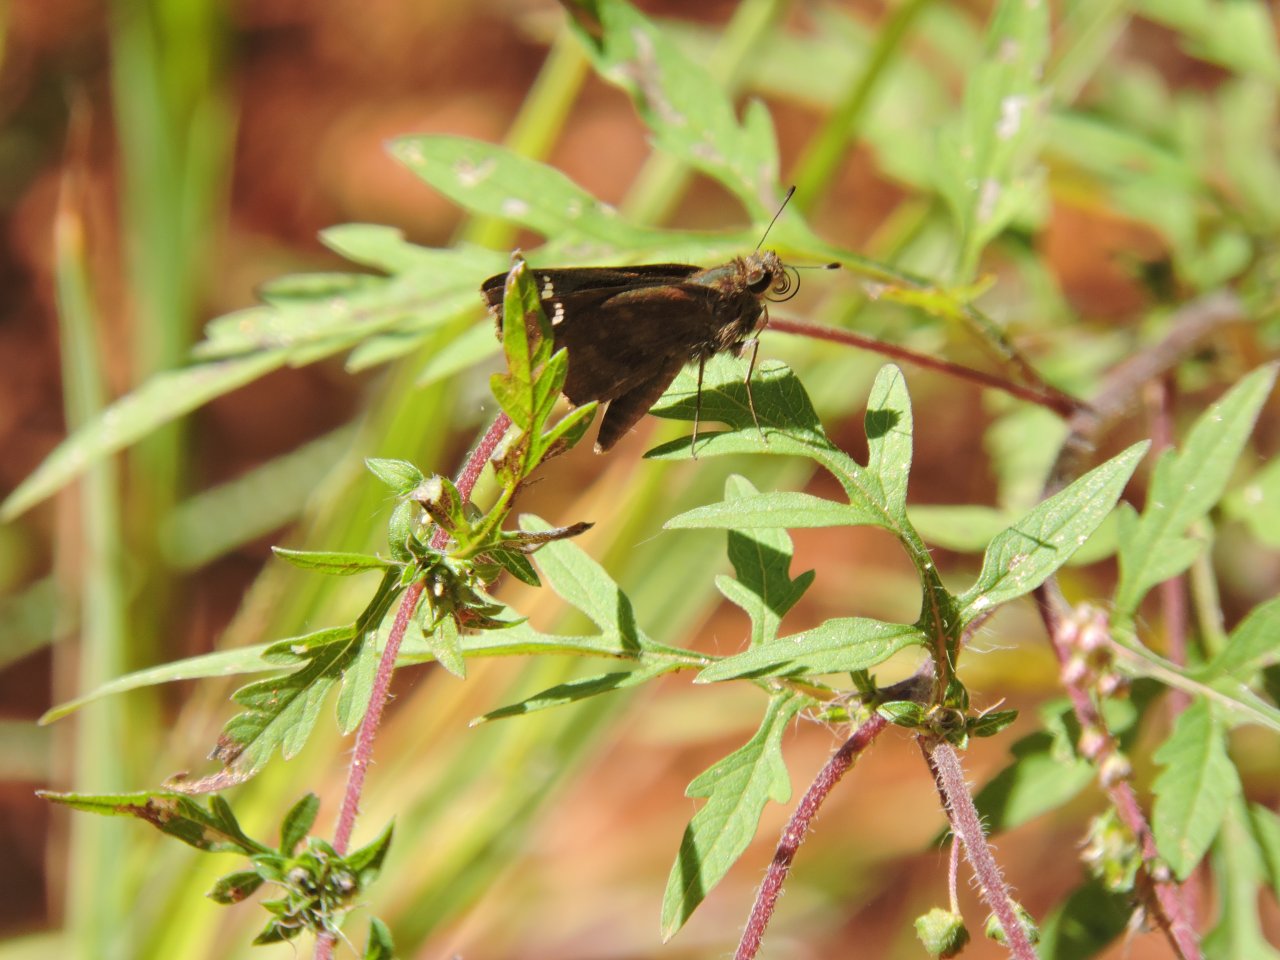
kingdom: Animalia
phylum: Arthropoda
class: Insecta
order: Lepidoptera
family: Hesperiidae
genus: Lerema
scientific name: Lerema accius
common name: Clouded Skipper
